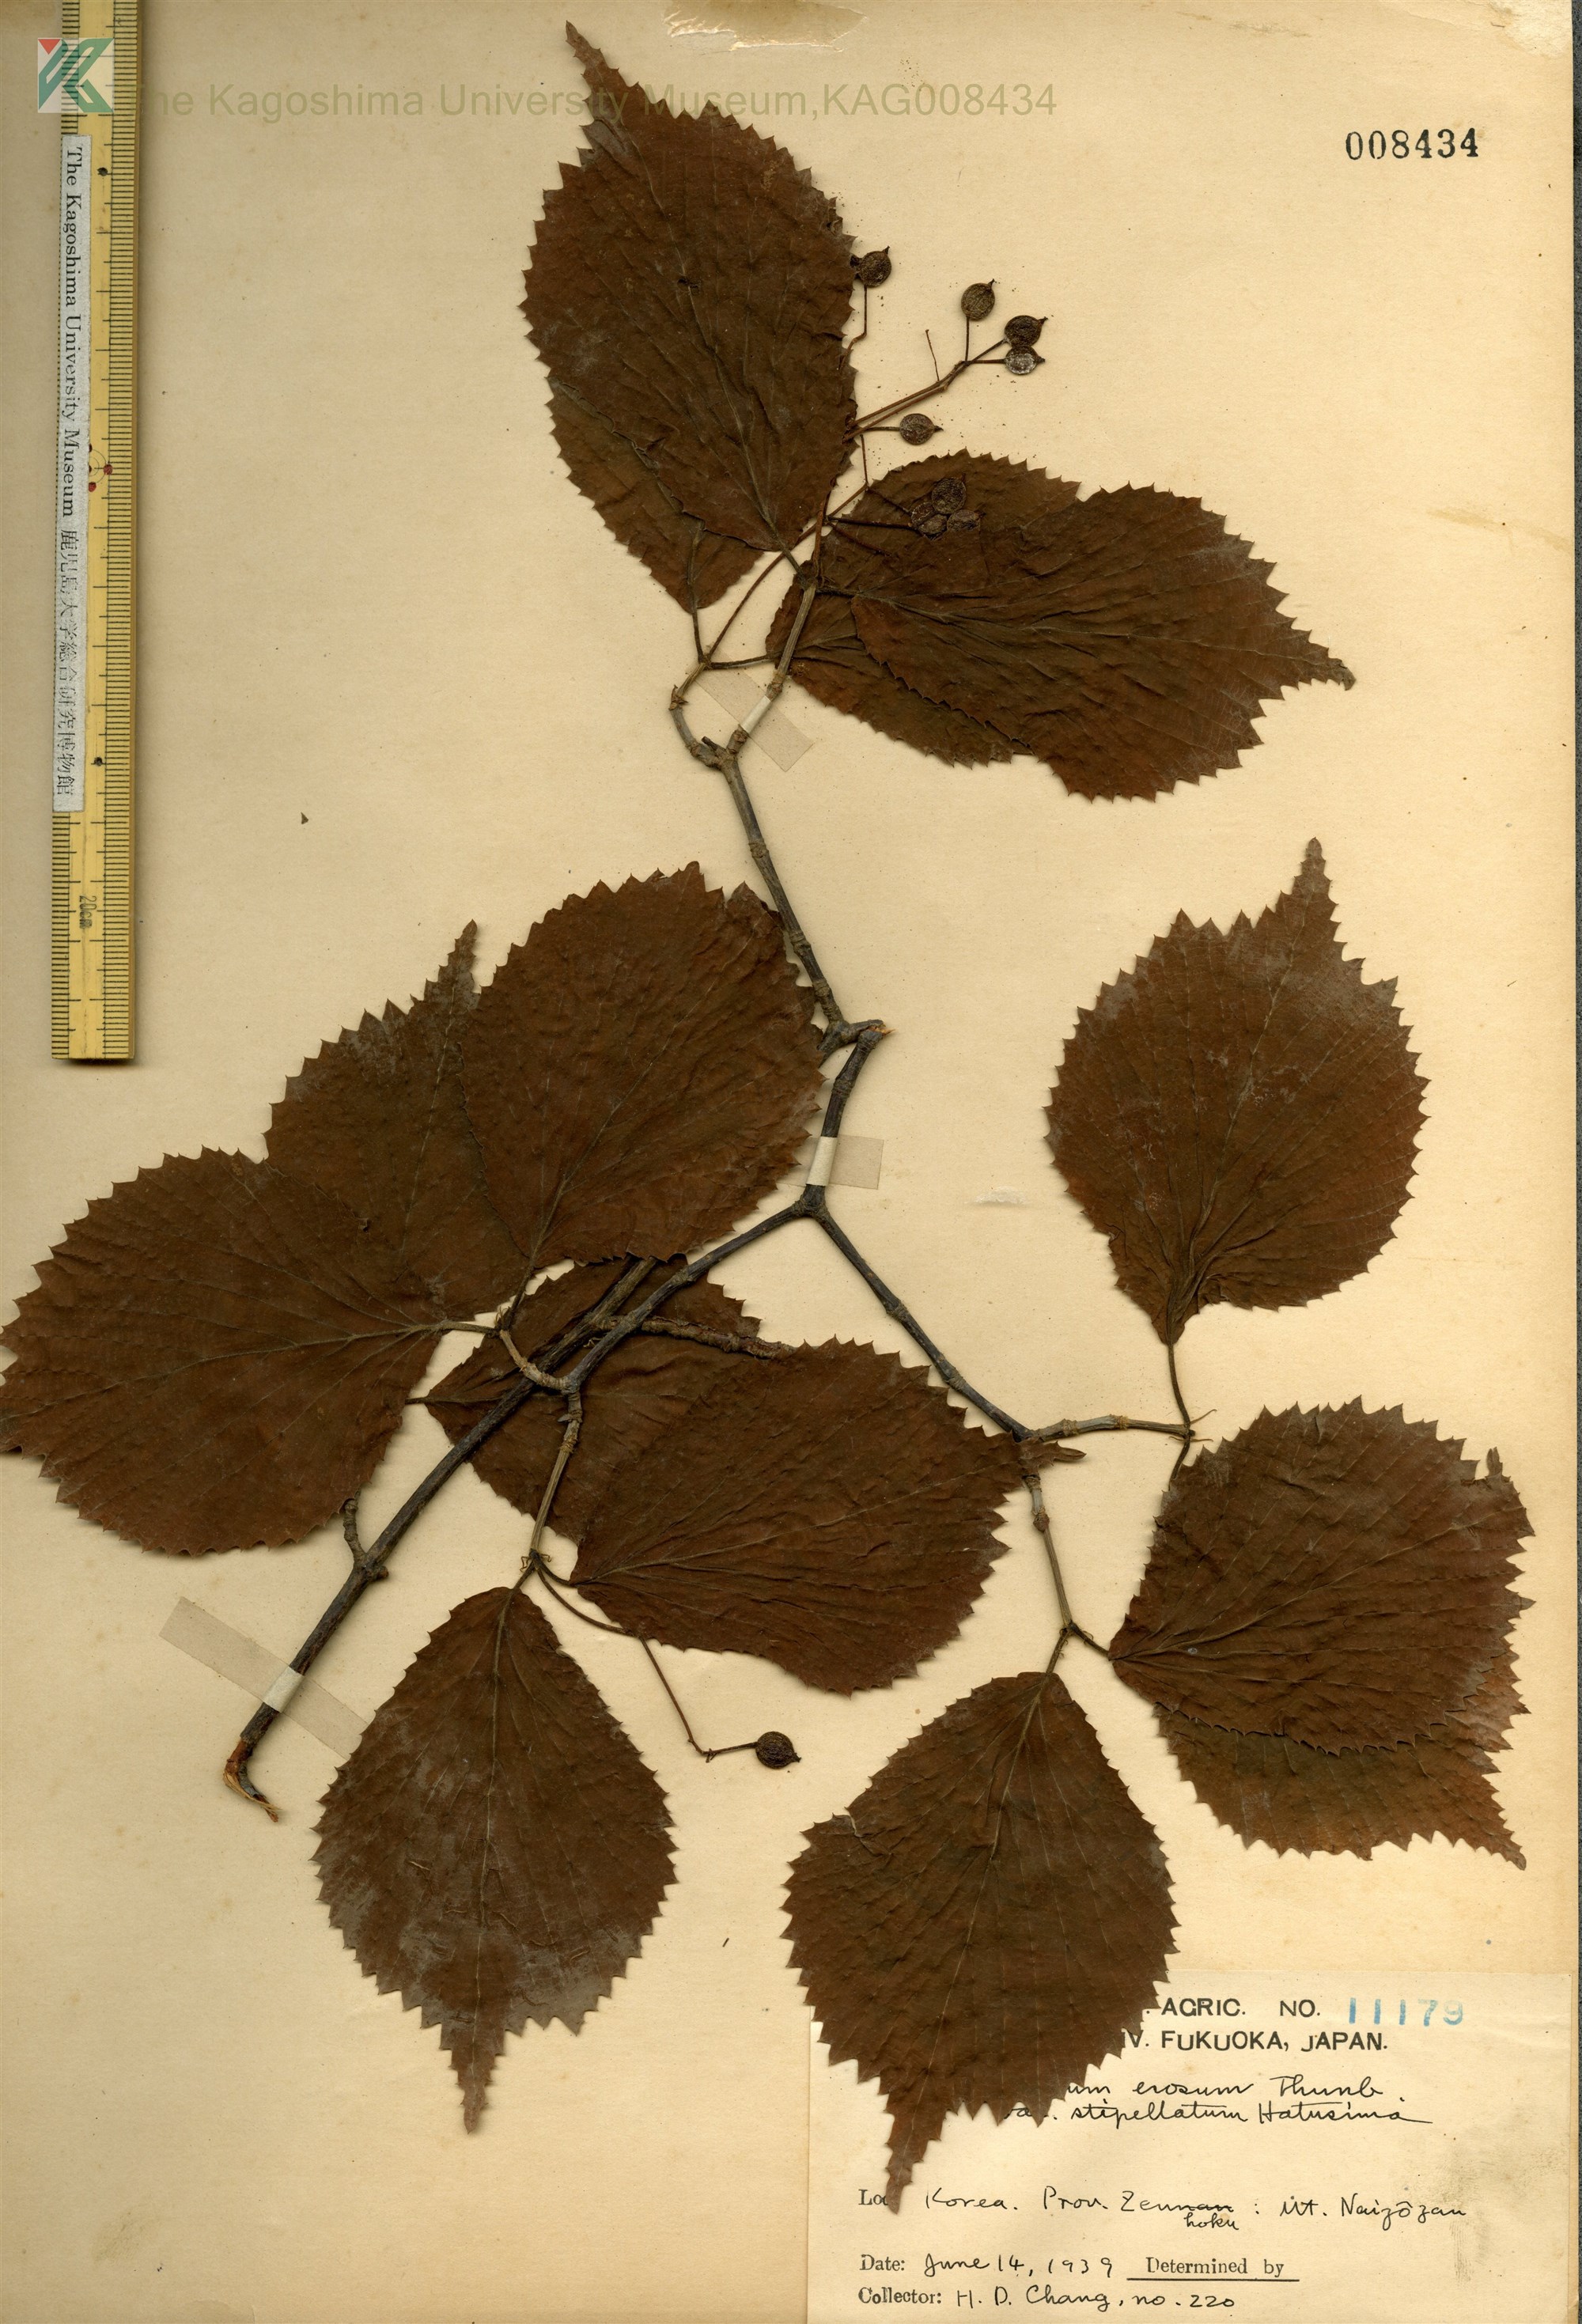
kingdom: Plantae
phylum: Tracheophyta
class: Magnoliopsida
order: Dipsacales
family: Viburnaceae
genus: Viburnum
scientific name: Viburnum erosum
